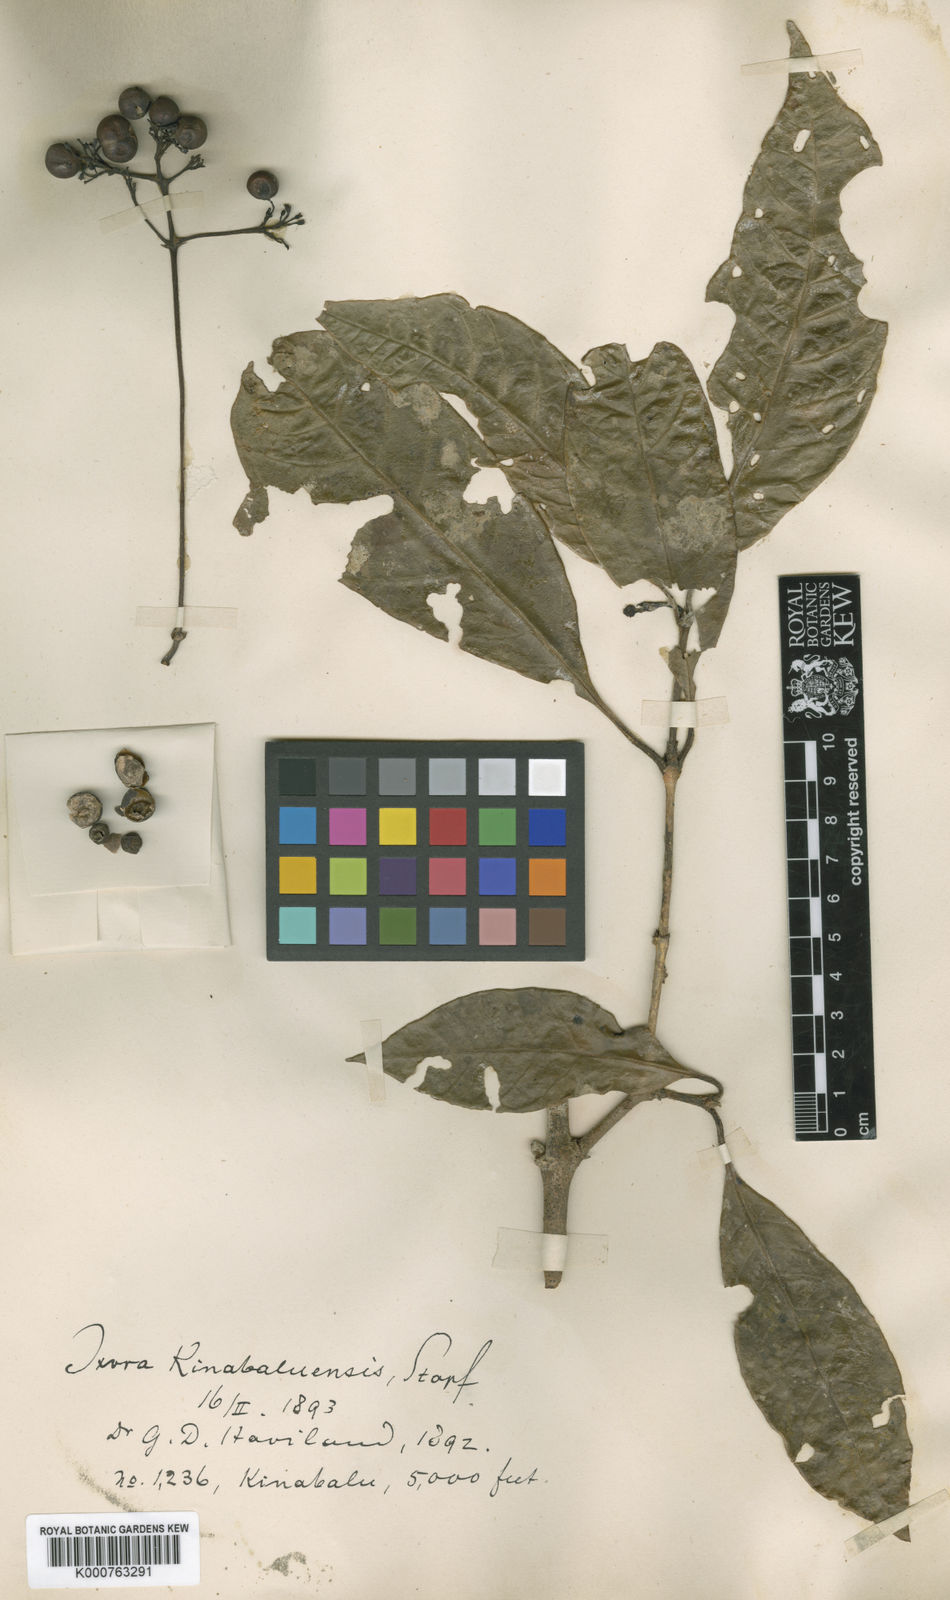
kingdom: Plantae
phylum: Tracheophyta
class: Magnoliopsida
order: Gentianales
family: Rubiaceae
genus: Ixora
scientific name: Ixora kinabaluensis
